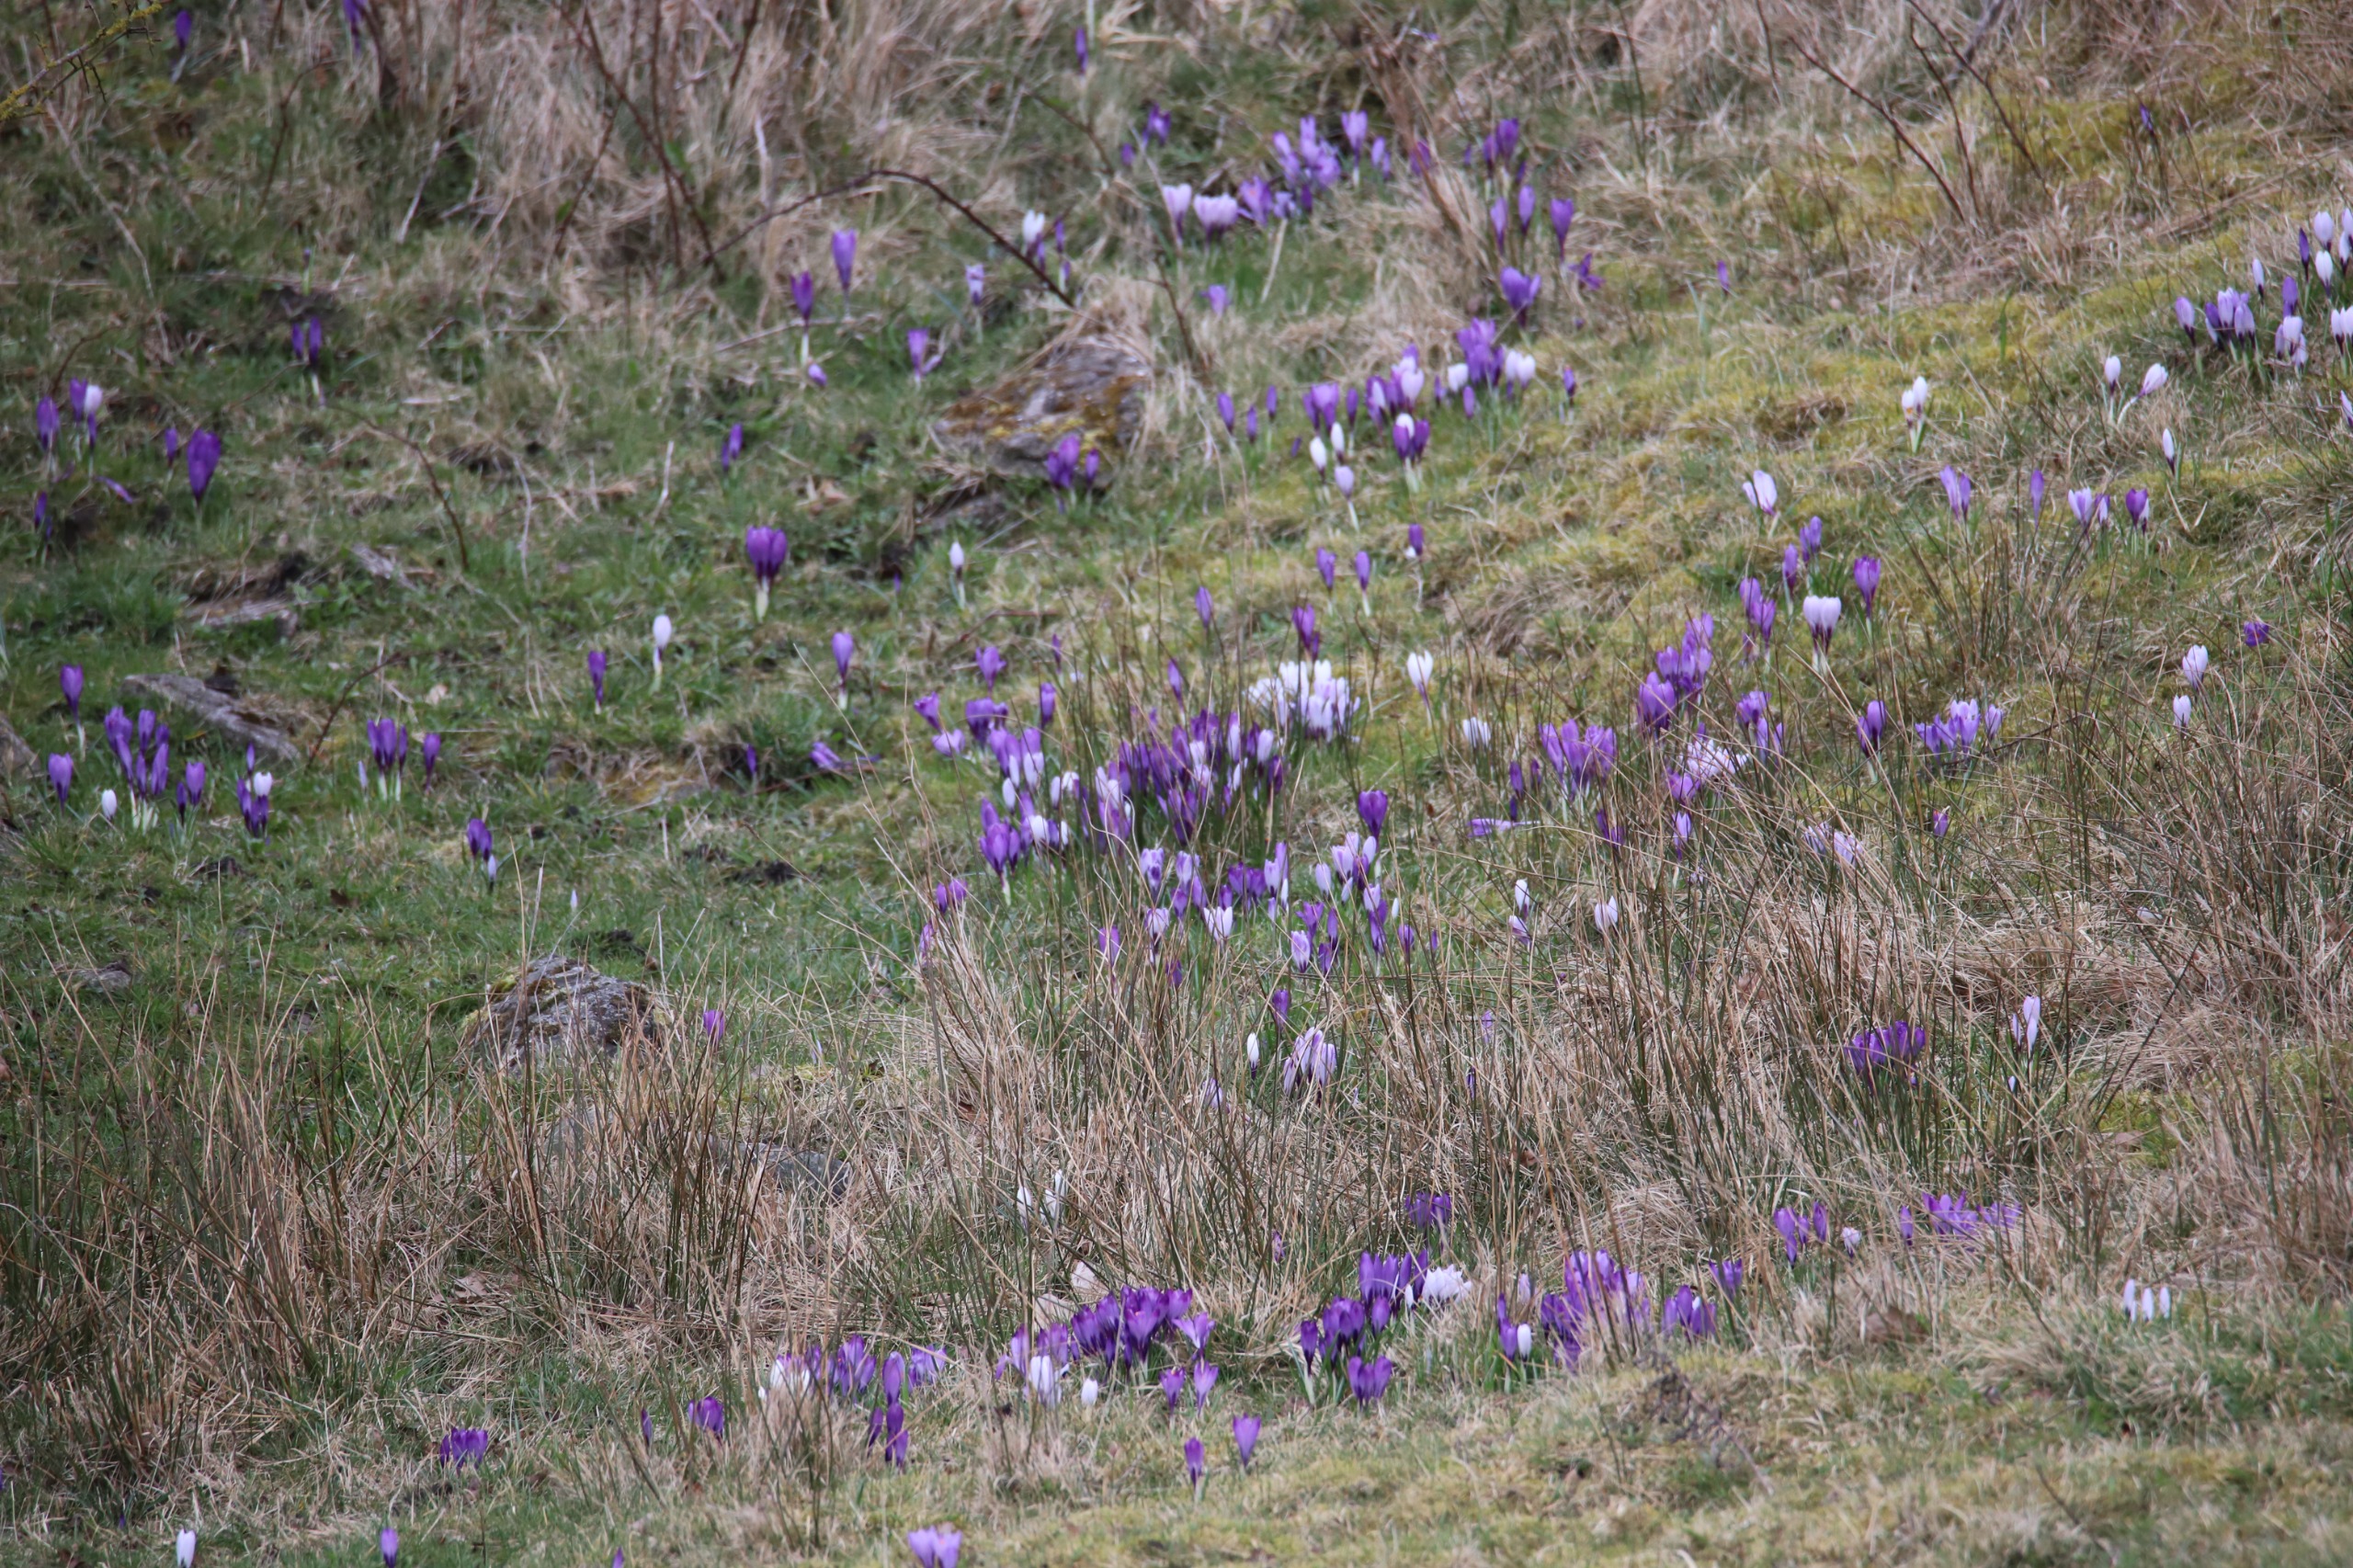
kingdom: Plantae
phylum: Tracheophyta
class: Liliopsida
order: Asparagales
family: Iridaceae
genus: Crocus
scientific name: Crocus vernus
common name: Vår-krokus
